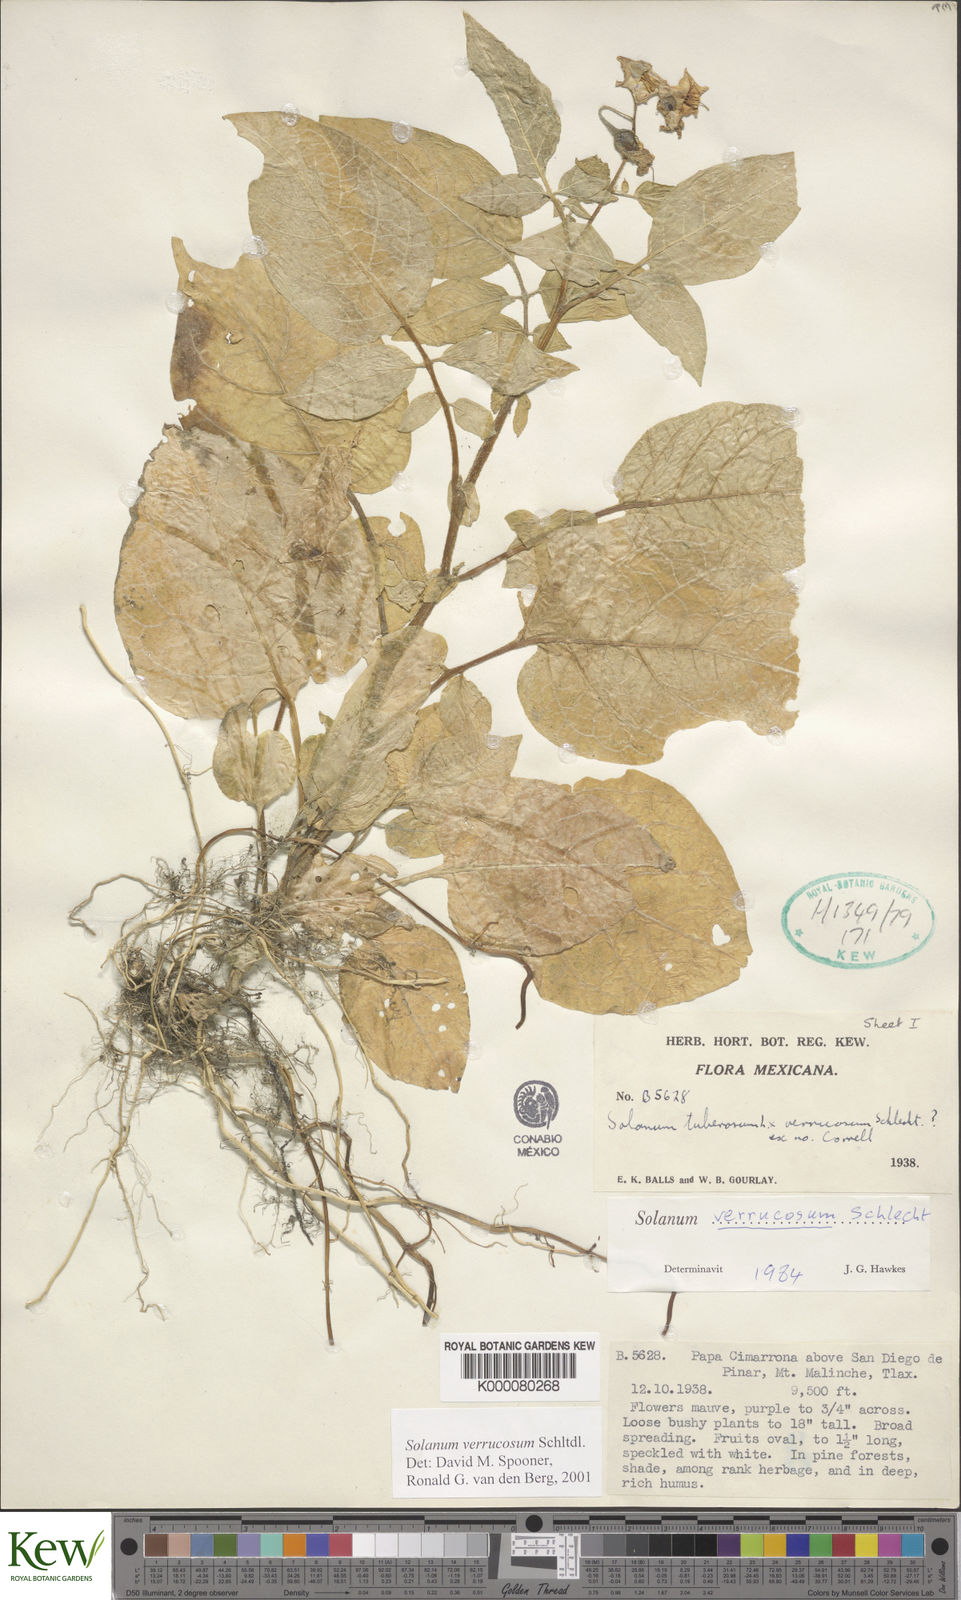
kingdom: Plantae
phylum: Tracheophyta
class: Magnoliopsida
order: Solanales
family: Solanaceae
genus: Solanum
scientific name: Solanum verrucosum
